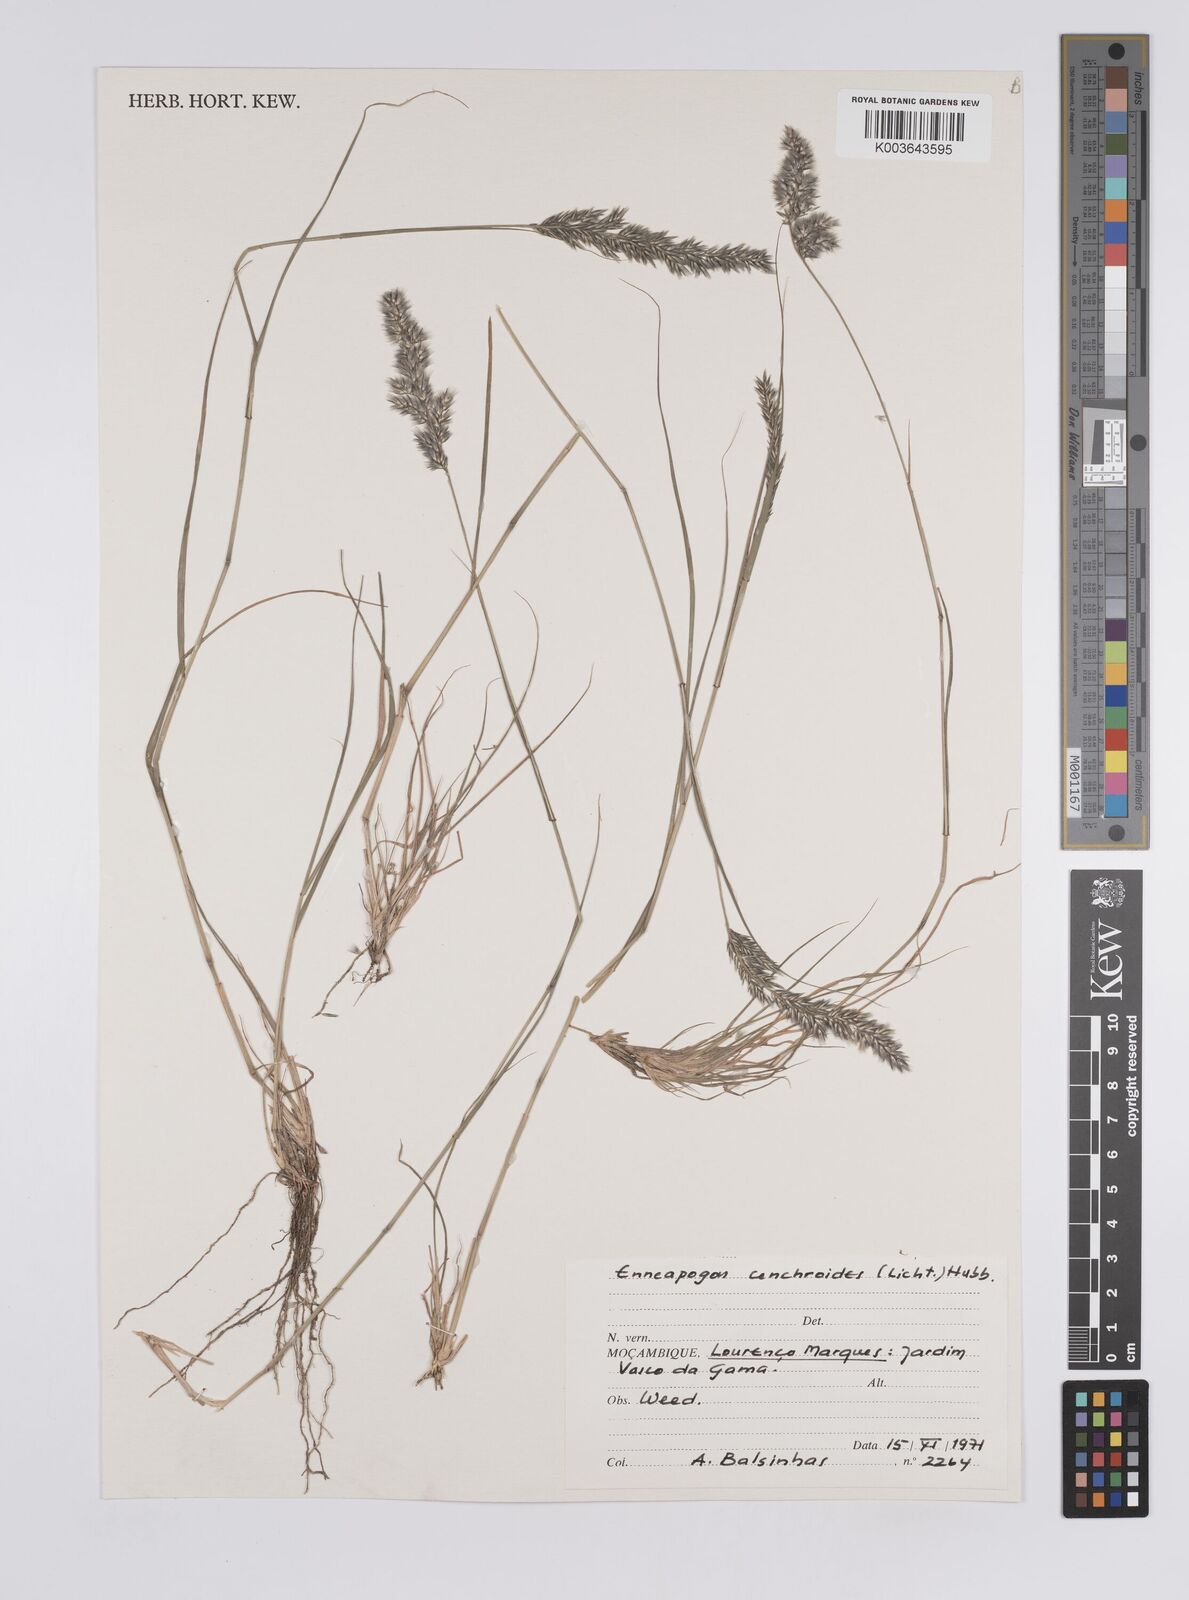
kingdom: Plantae
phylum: Tracheophyta
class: Liliopsida
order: Poales
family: Poaceae
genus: Enneapogon
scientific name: Enneapogon cenchroides
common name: Soft feather pappusgrass
